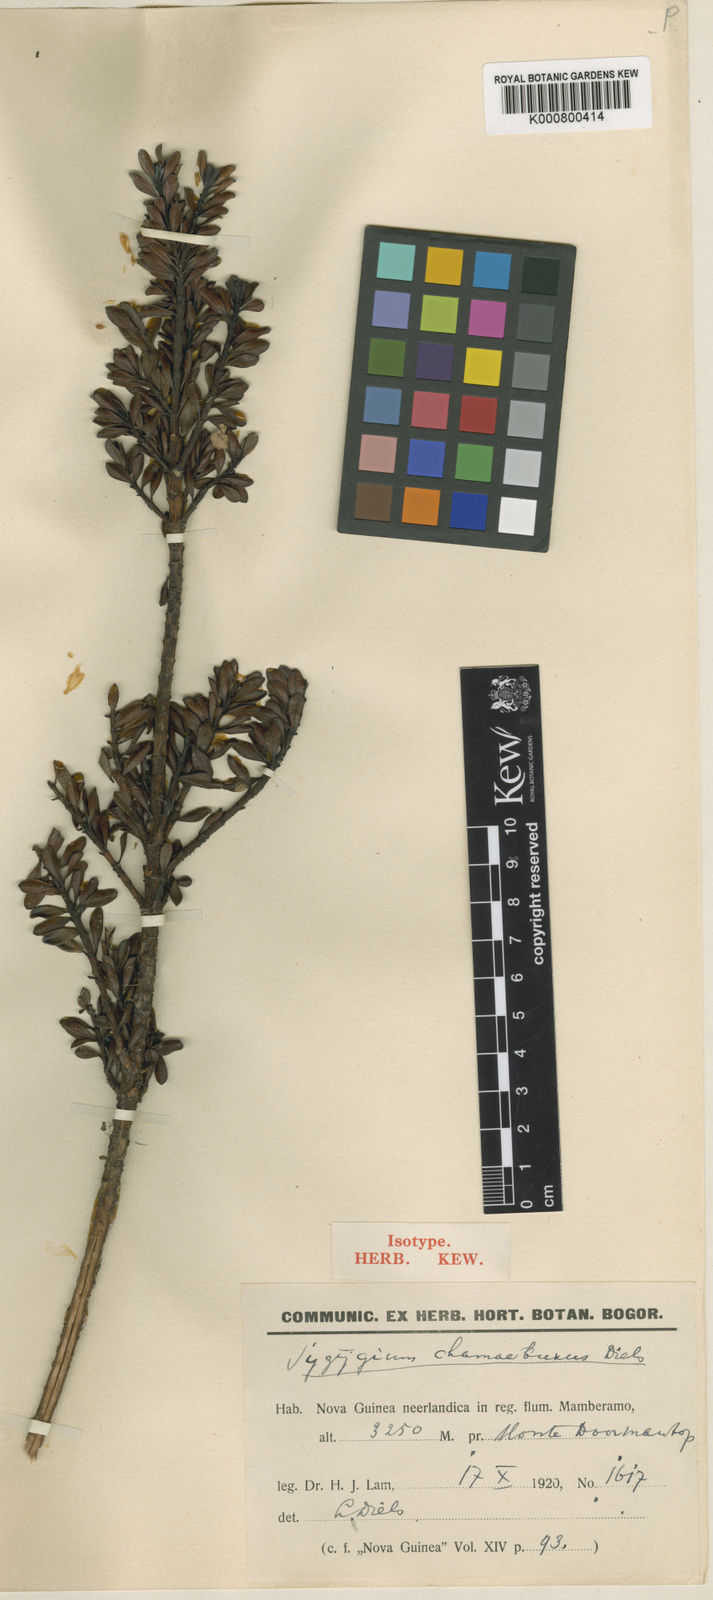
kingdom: Plantae
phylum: Tracheophyta
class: Magnoliopsida
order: Myrtales
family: Myrtaceae
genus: Syzygium
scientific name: Syzygium chamaebuxus
